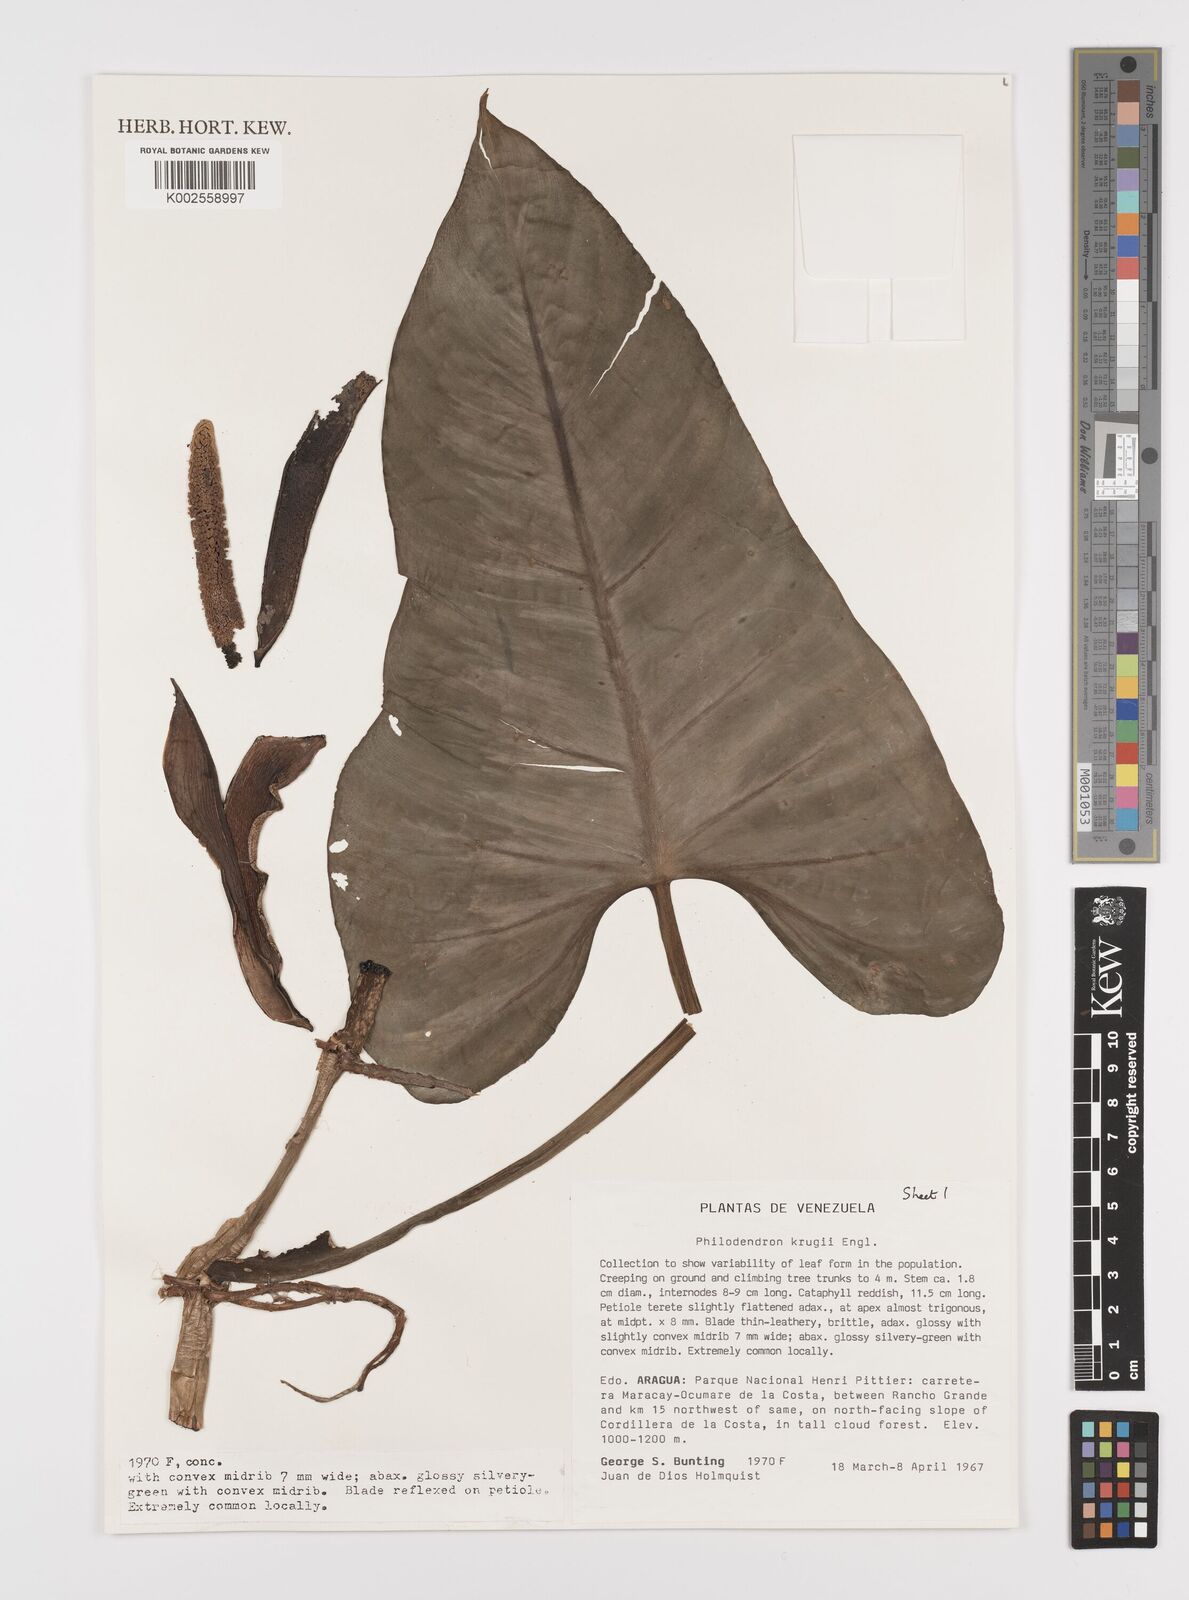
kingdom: Plantae
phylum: Tracheophyta
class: Liliopsida
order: Alismatales
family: Araceae
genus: Philodendron
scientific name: Philodendron krugii
